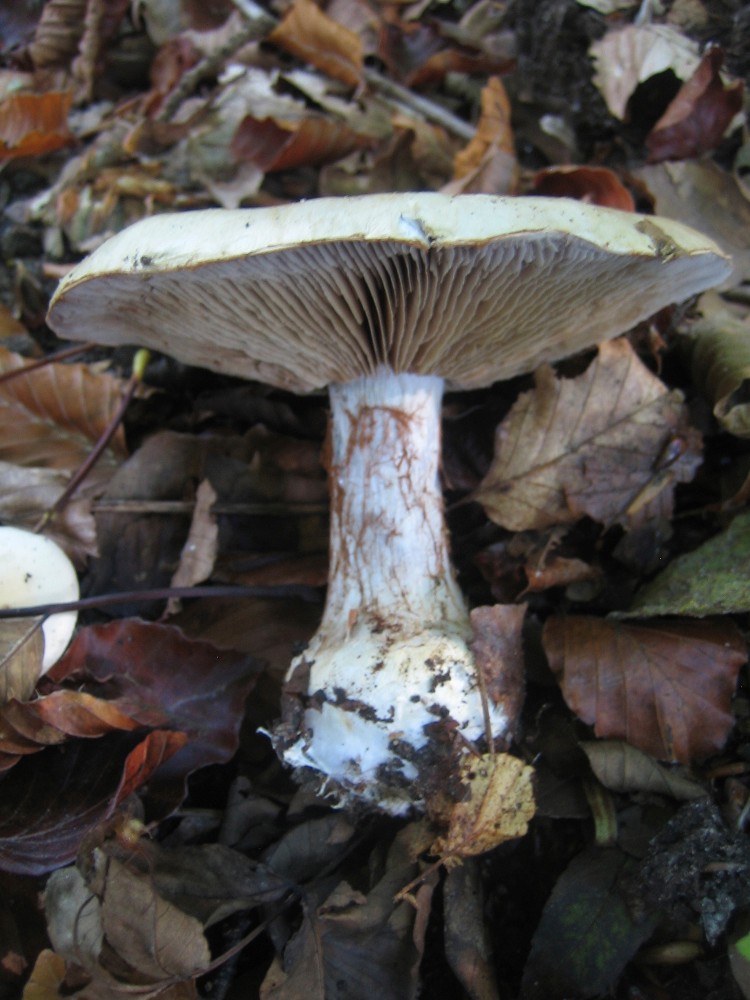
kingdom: Fungi
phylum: Basidiomycota
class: Agaricomycetes
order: Agaricales
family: Cortinariaceae
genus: Cortinarius
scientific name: Cortinarius anserinus
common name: bøge-slørhat
